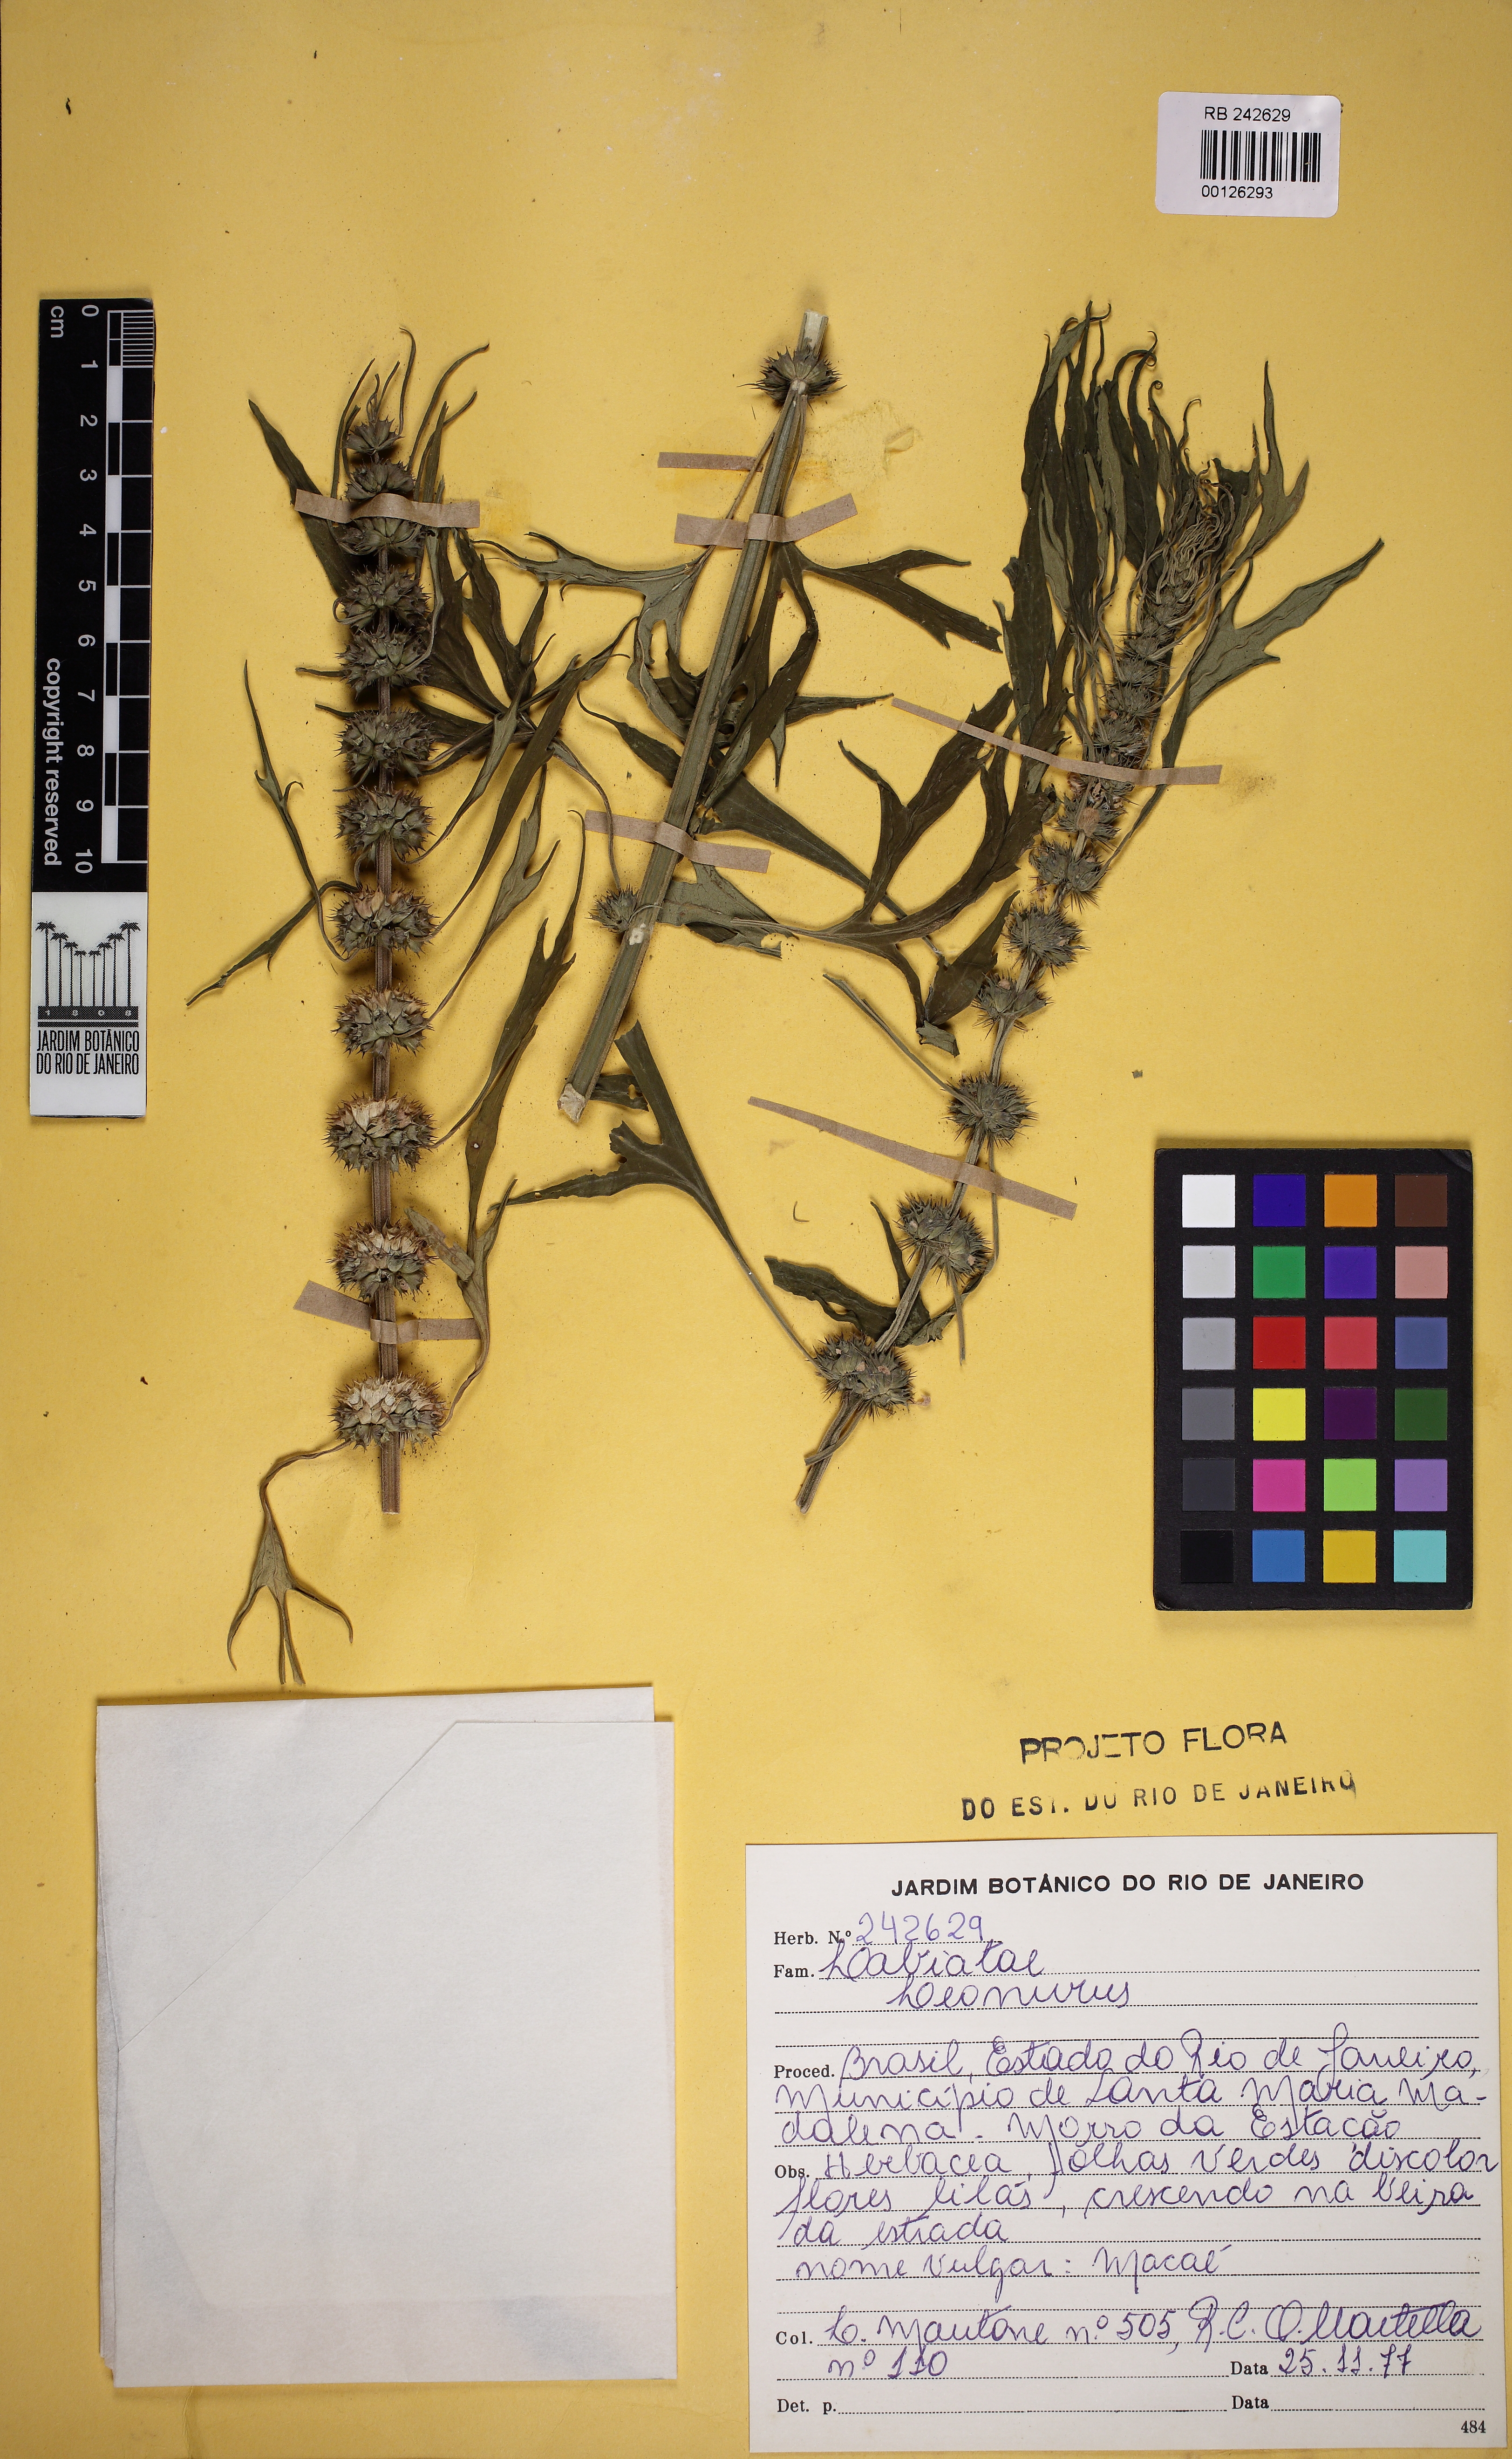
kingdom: Plantae
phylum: Tracheophyta
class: Magnoliopsida
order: Lamiales
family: Lamiaceae
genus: Leonurus
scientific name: Leonurus japonicus
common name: Honeyweed
